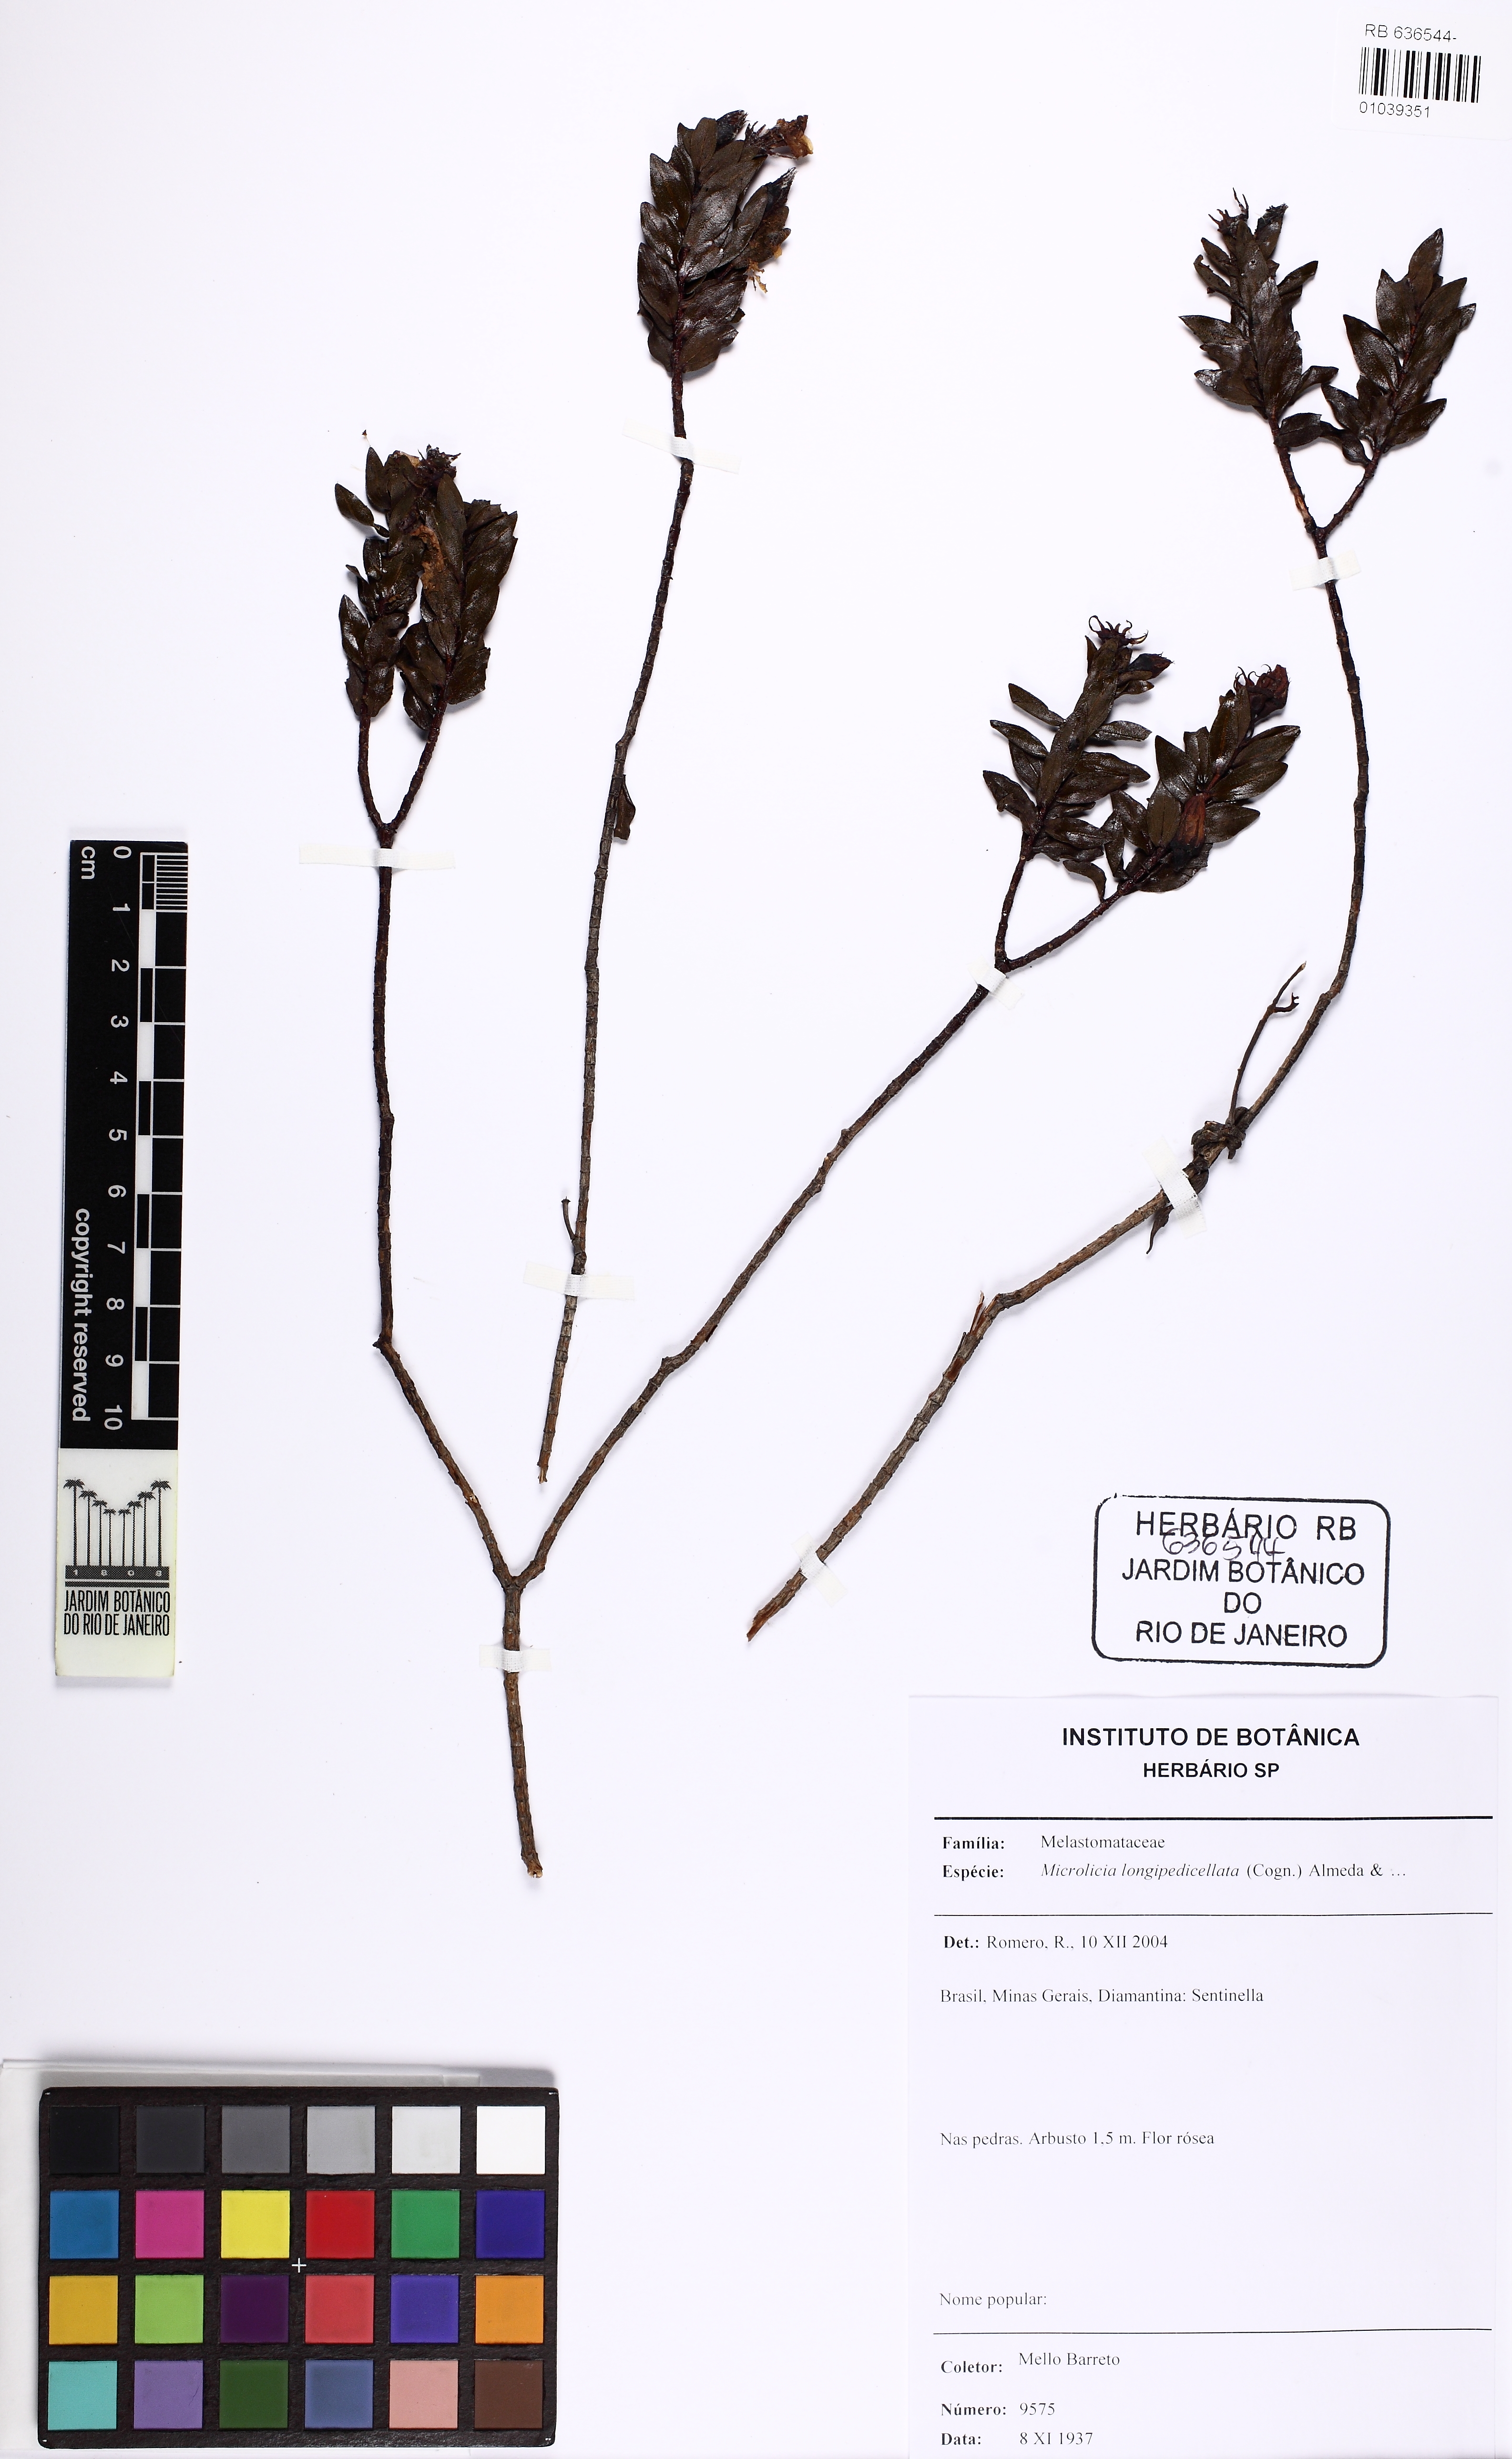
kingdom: Plantae
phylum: Tracheophyta
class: Magnoliopsida
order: Myrtales
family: Melastomataceae
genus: Microlicia
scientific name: Microlicia longipedicellata
